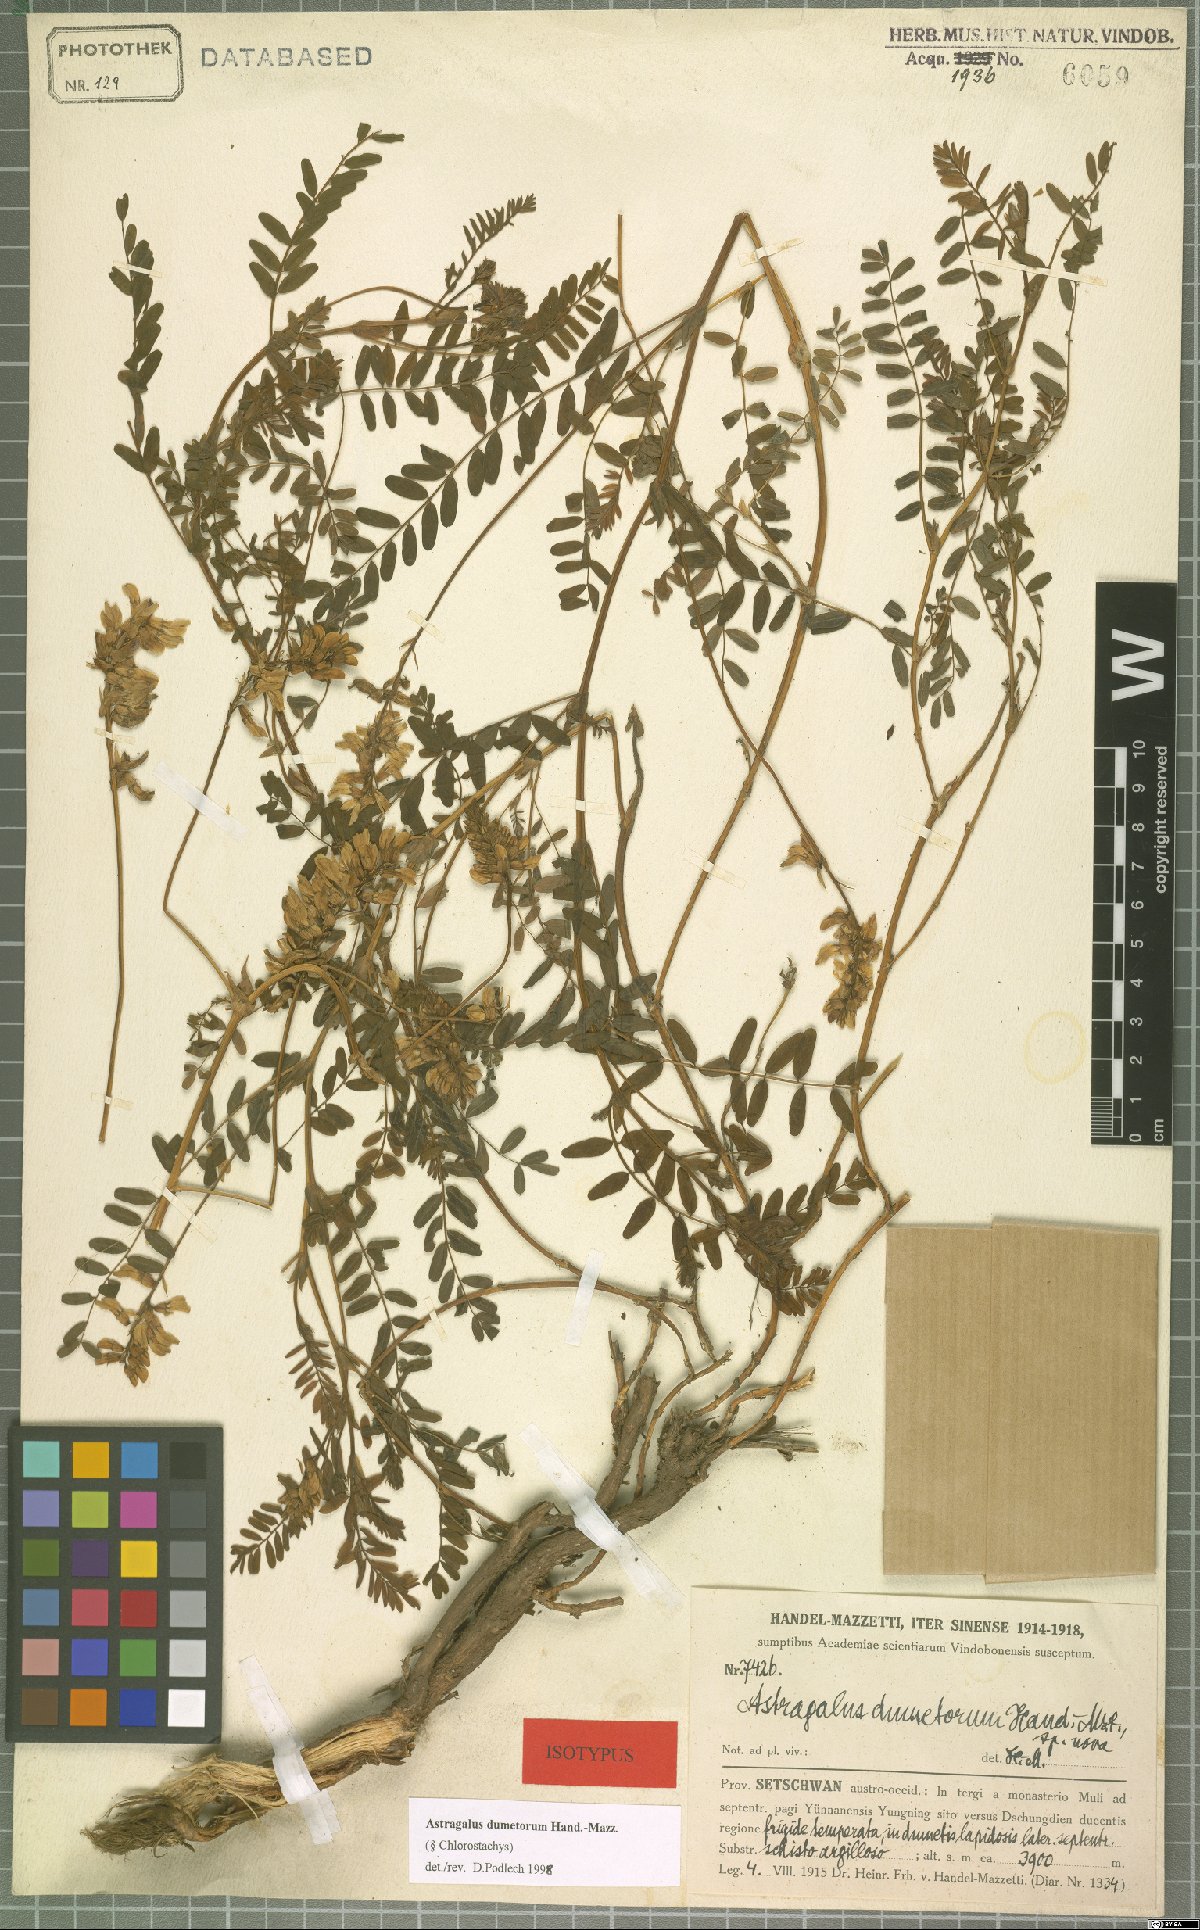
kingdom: Plantae
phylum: Tracheophyta
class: Magnoliopsida
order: Fabales
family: Fabaceae
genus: Astragalus
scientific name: Astragalus dumetorum
